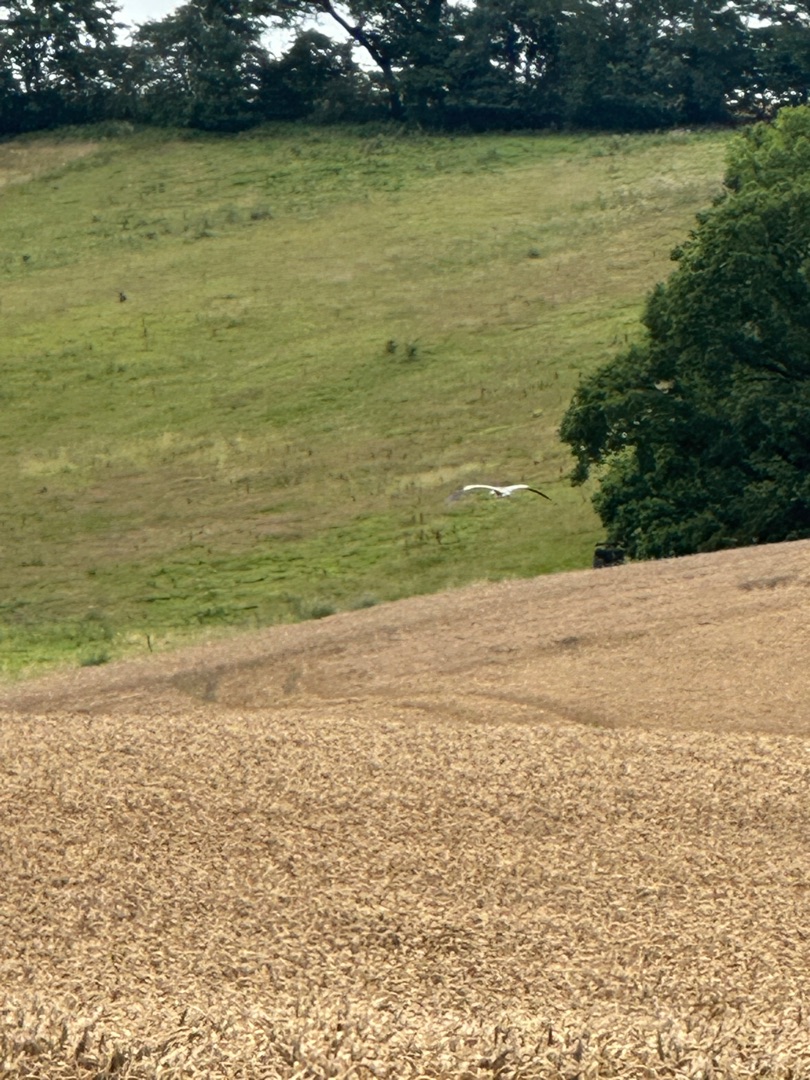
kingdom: Animalia
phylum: Chordata
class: Aves
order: Pelecaniformes
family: Ardeidae
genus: Ardea
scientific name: Ardea cinerea
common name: Fiskehejre
